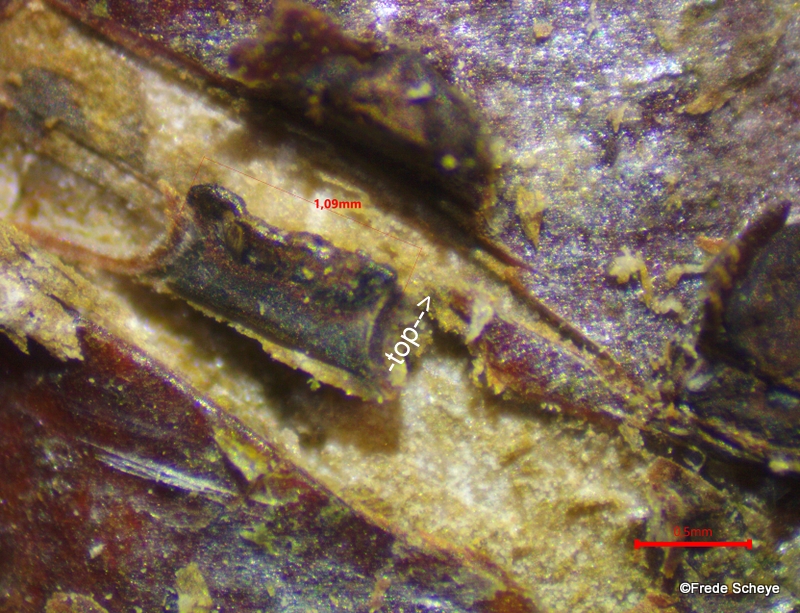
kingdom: Fungi
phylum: Ascomycota
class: Sordariomycetes
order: Xylariales
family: Melogrammataceae
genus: Melogramma
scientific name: Melogramma campylosporum
